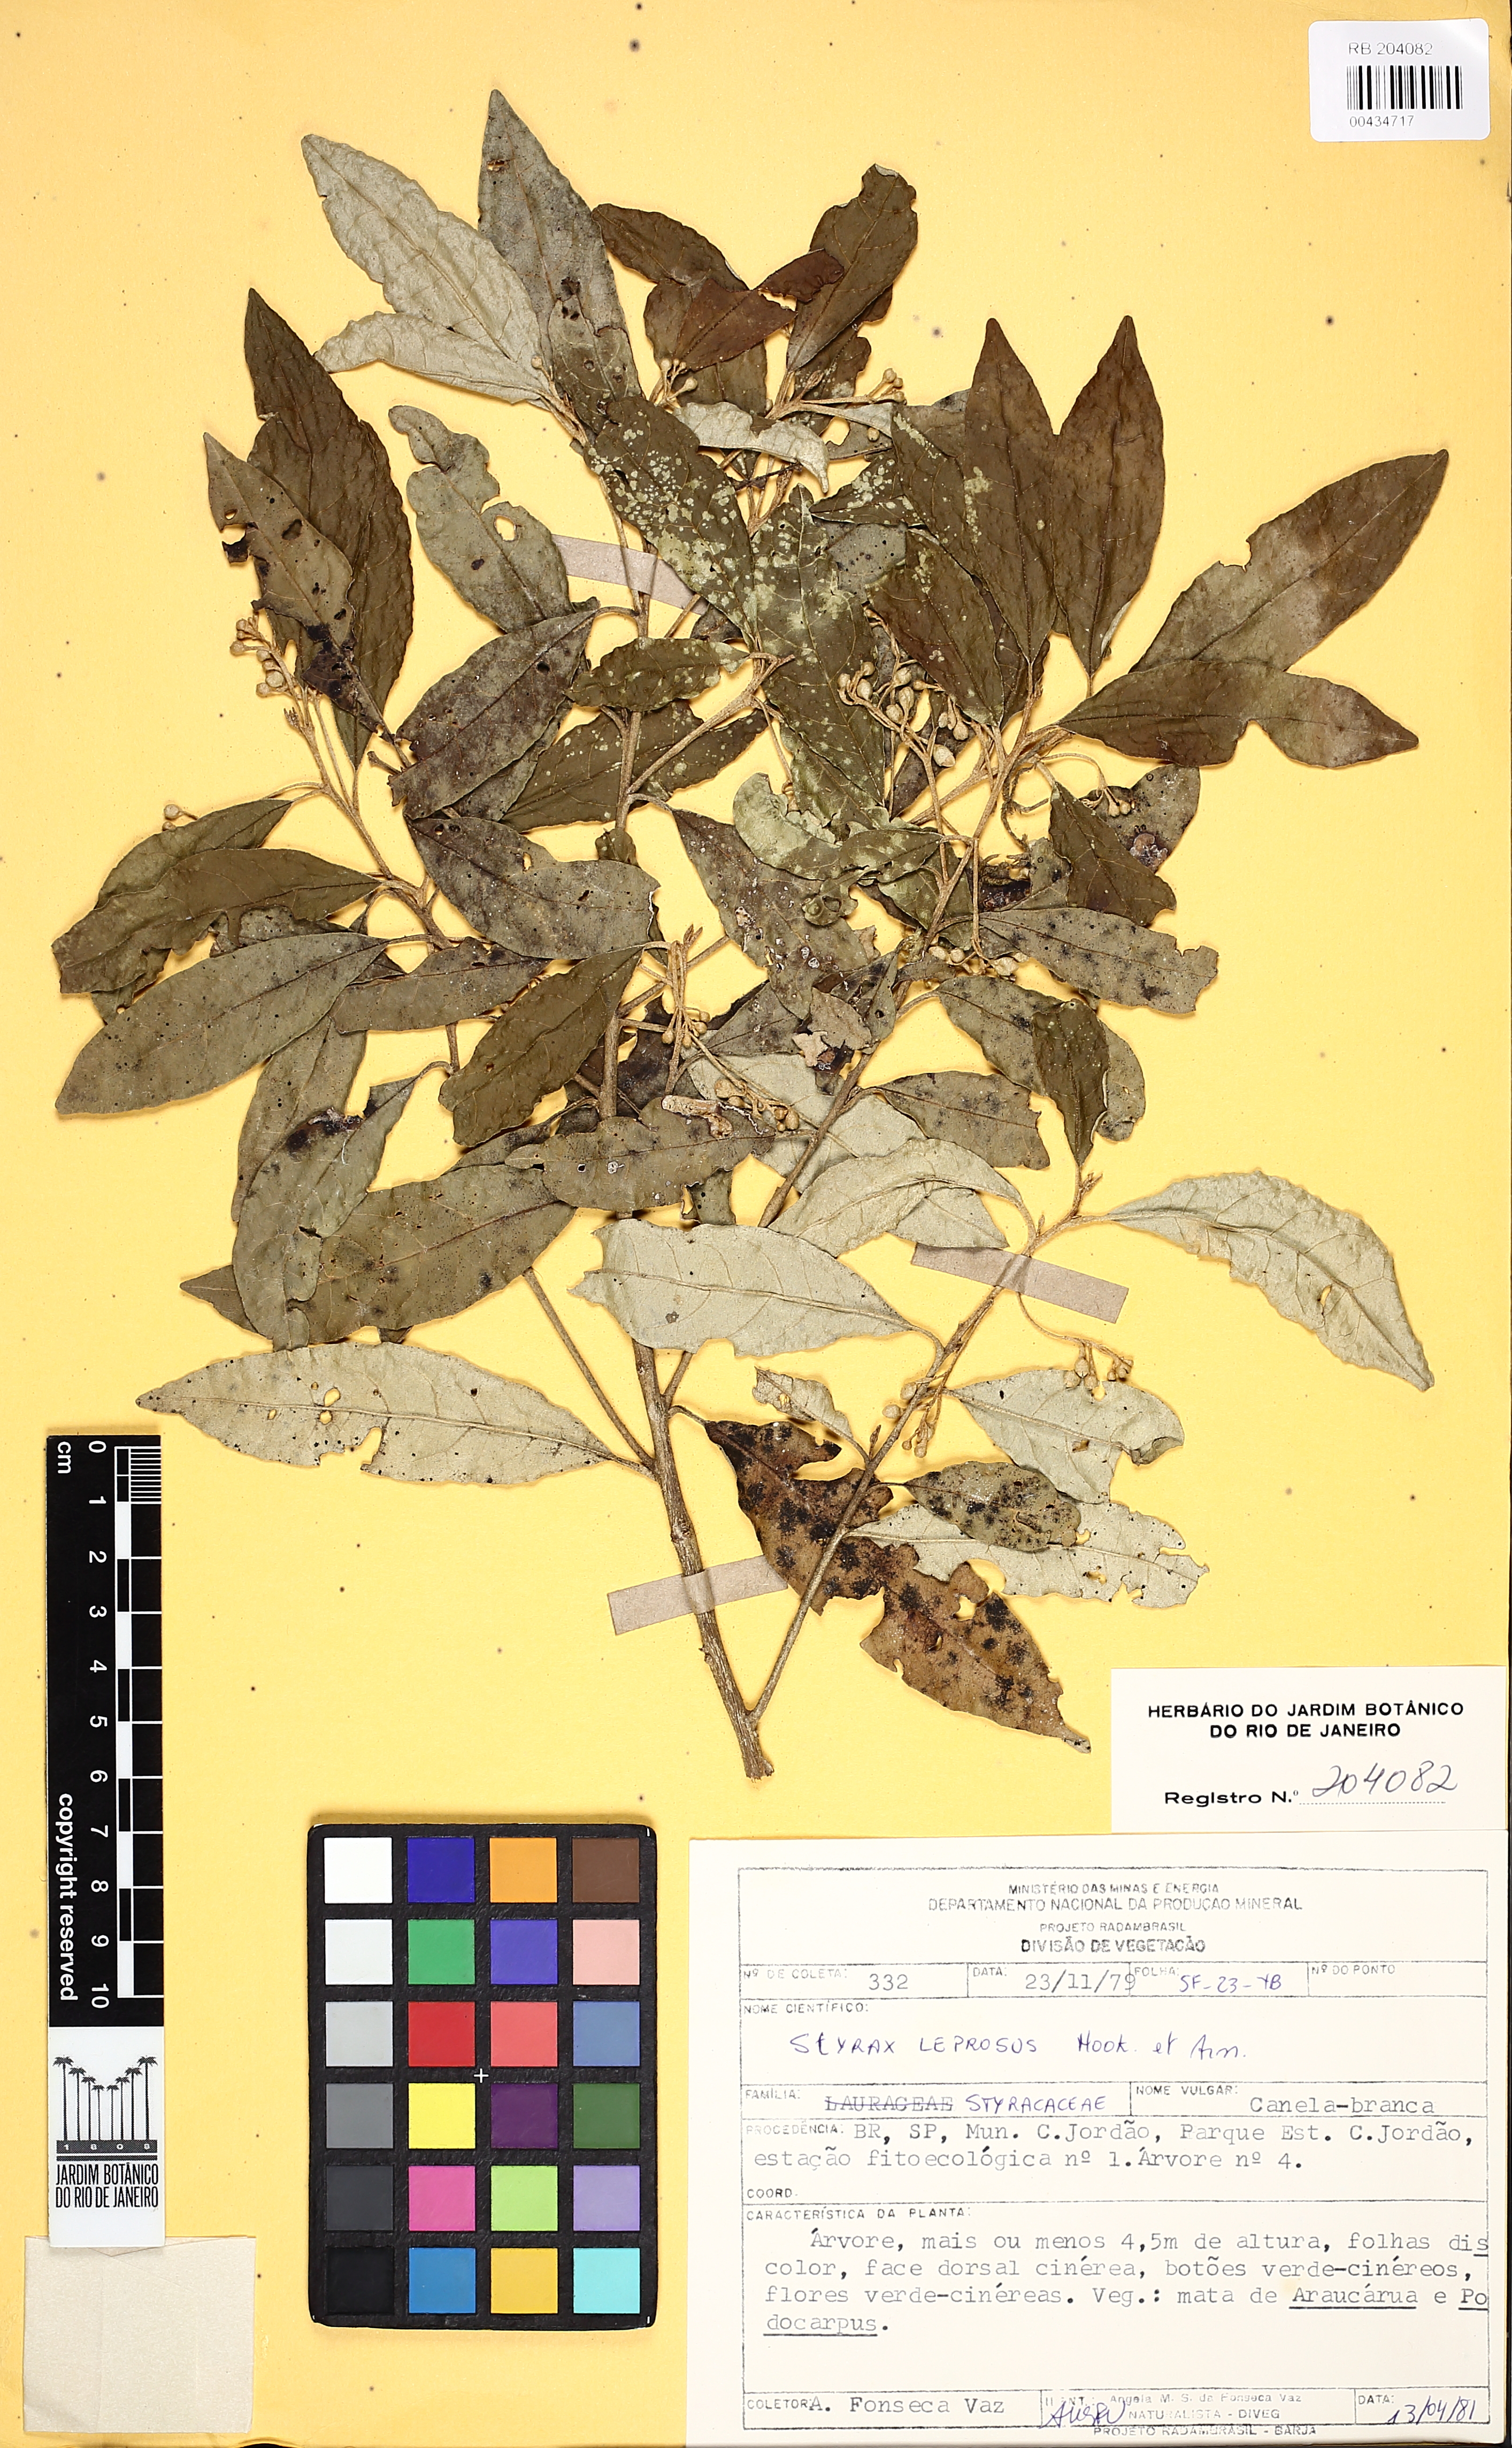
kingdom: Plantae
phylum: Tracheophyta
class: Magnoliopsida
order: Ericales
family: Styracaceae
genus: Styrax
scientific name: Styrax leprosus
